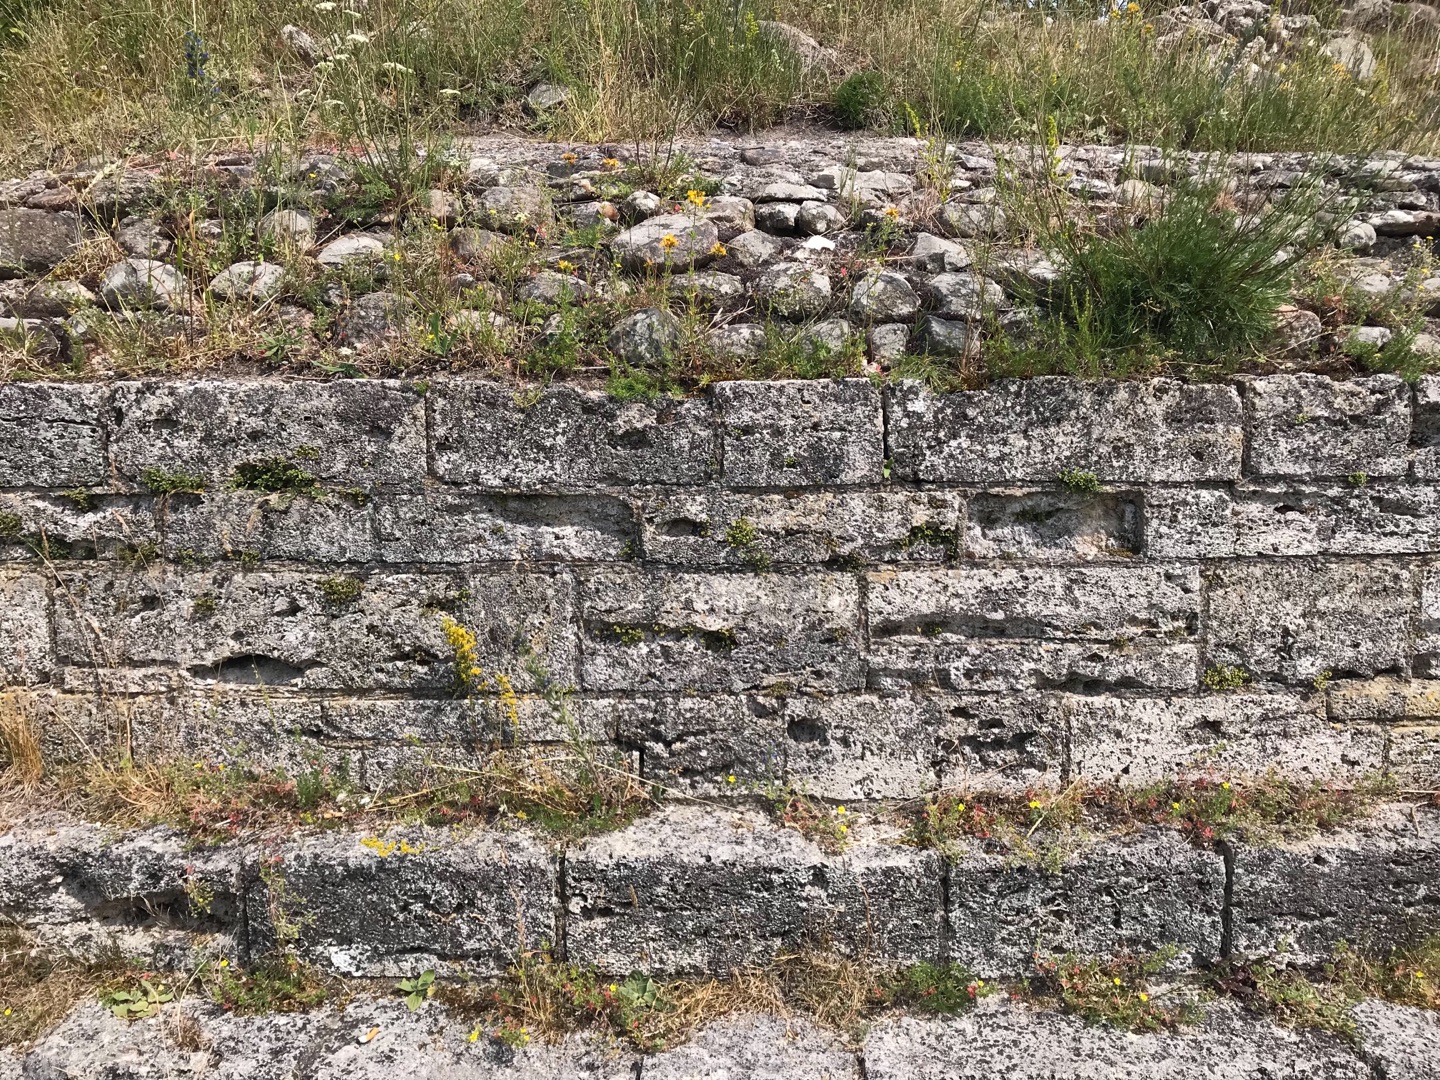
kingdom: Plantae
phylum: Tracheophyta
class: Polypodiopsida
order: Polypodiales
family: Aspleniaceae
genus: Asplenium
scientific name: Asplenium ruta-muraria
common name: Murrude
